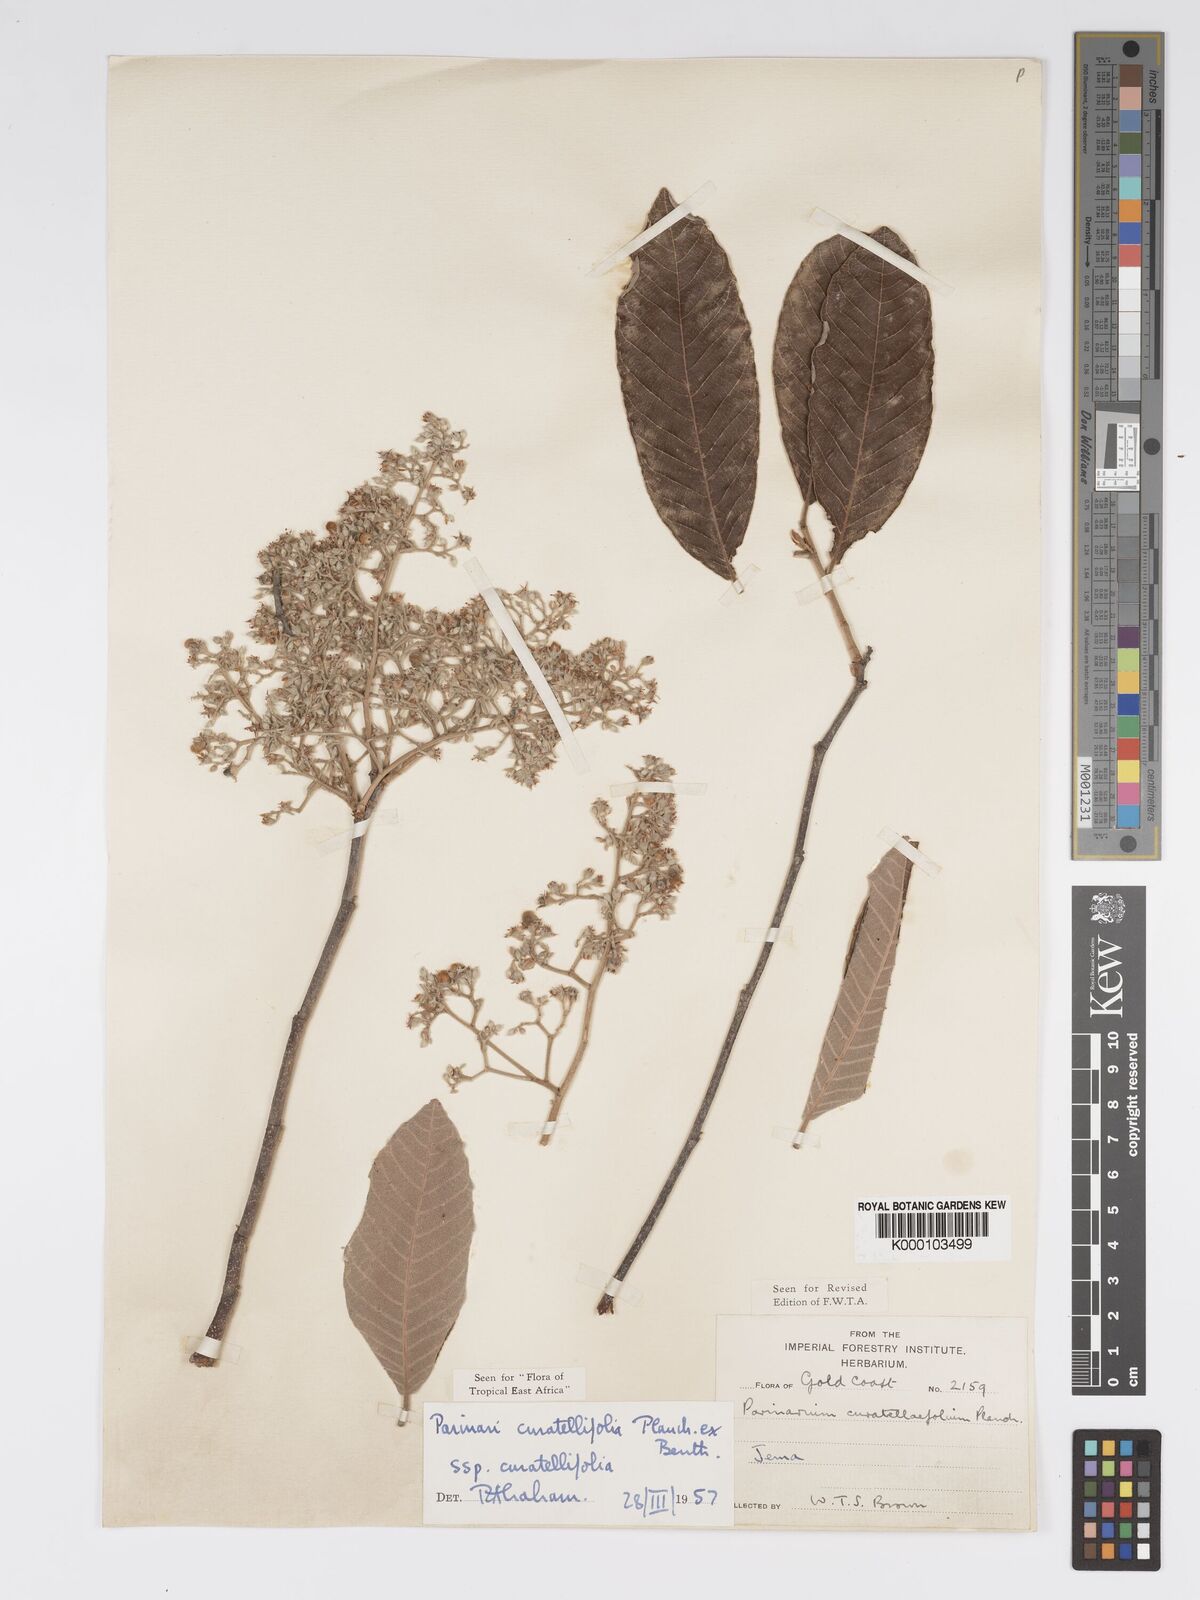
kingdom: Plantae
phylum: Tracheophyta
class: Magnoliopsida
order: Malpighiales
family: Chrysobalanaceae
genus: Parinari
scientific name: Parinari curatellifolia
